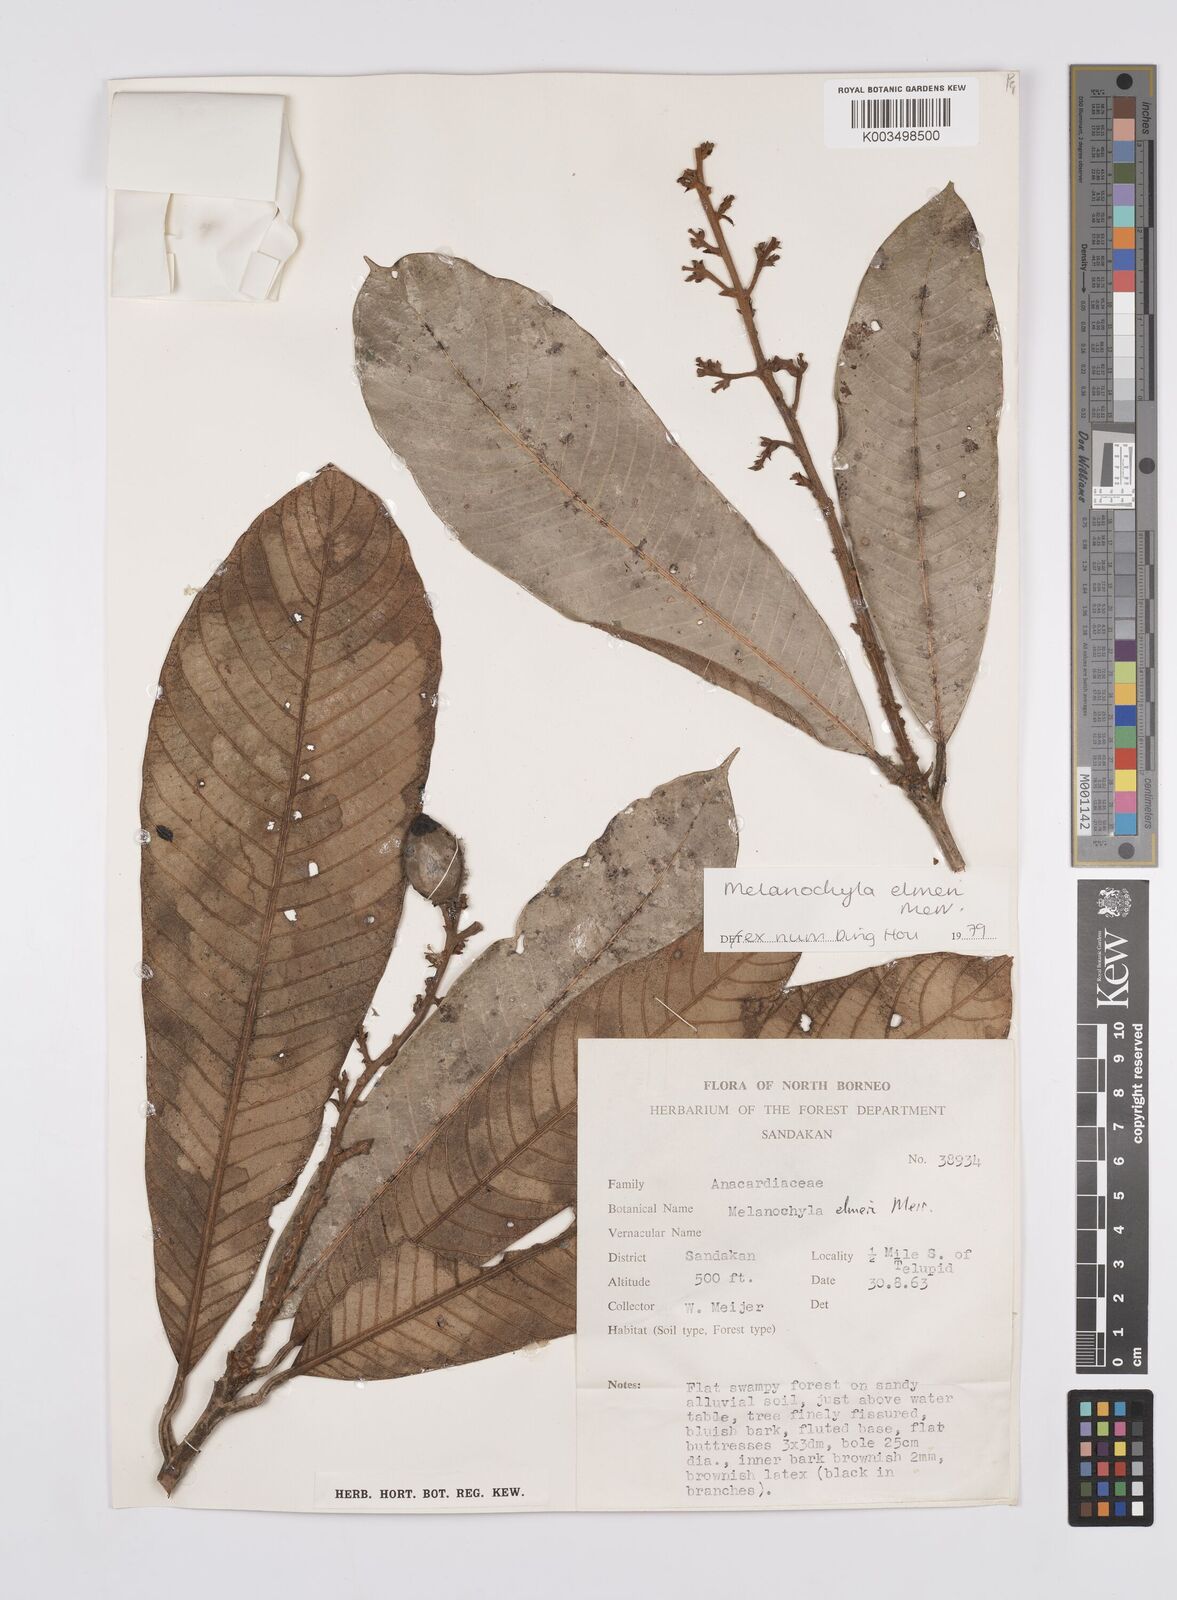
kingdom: Plantae
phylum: Tracheophyta
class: Magnoliopsida
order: Sapindales
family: Anacardiaceae
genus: Melanochyla
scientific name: Melanochyla elmeri
